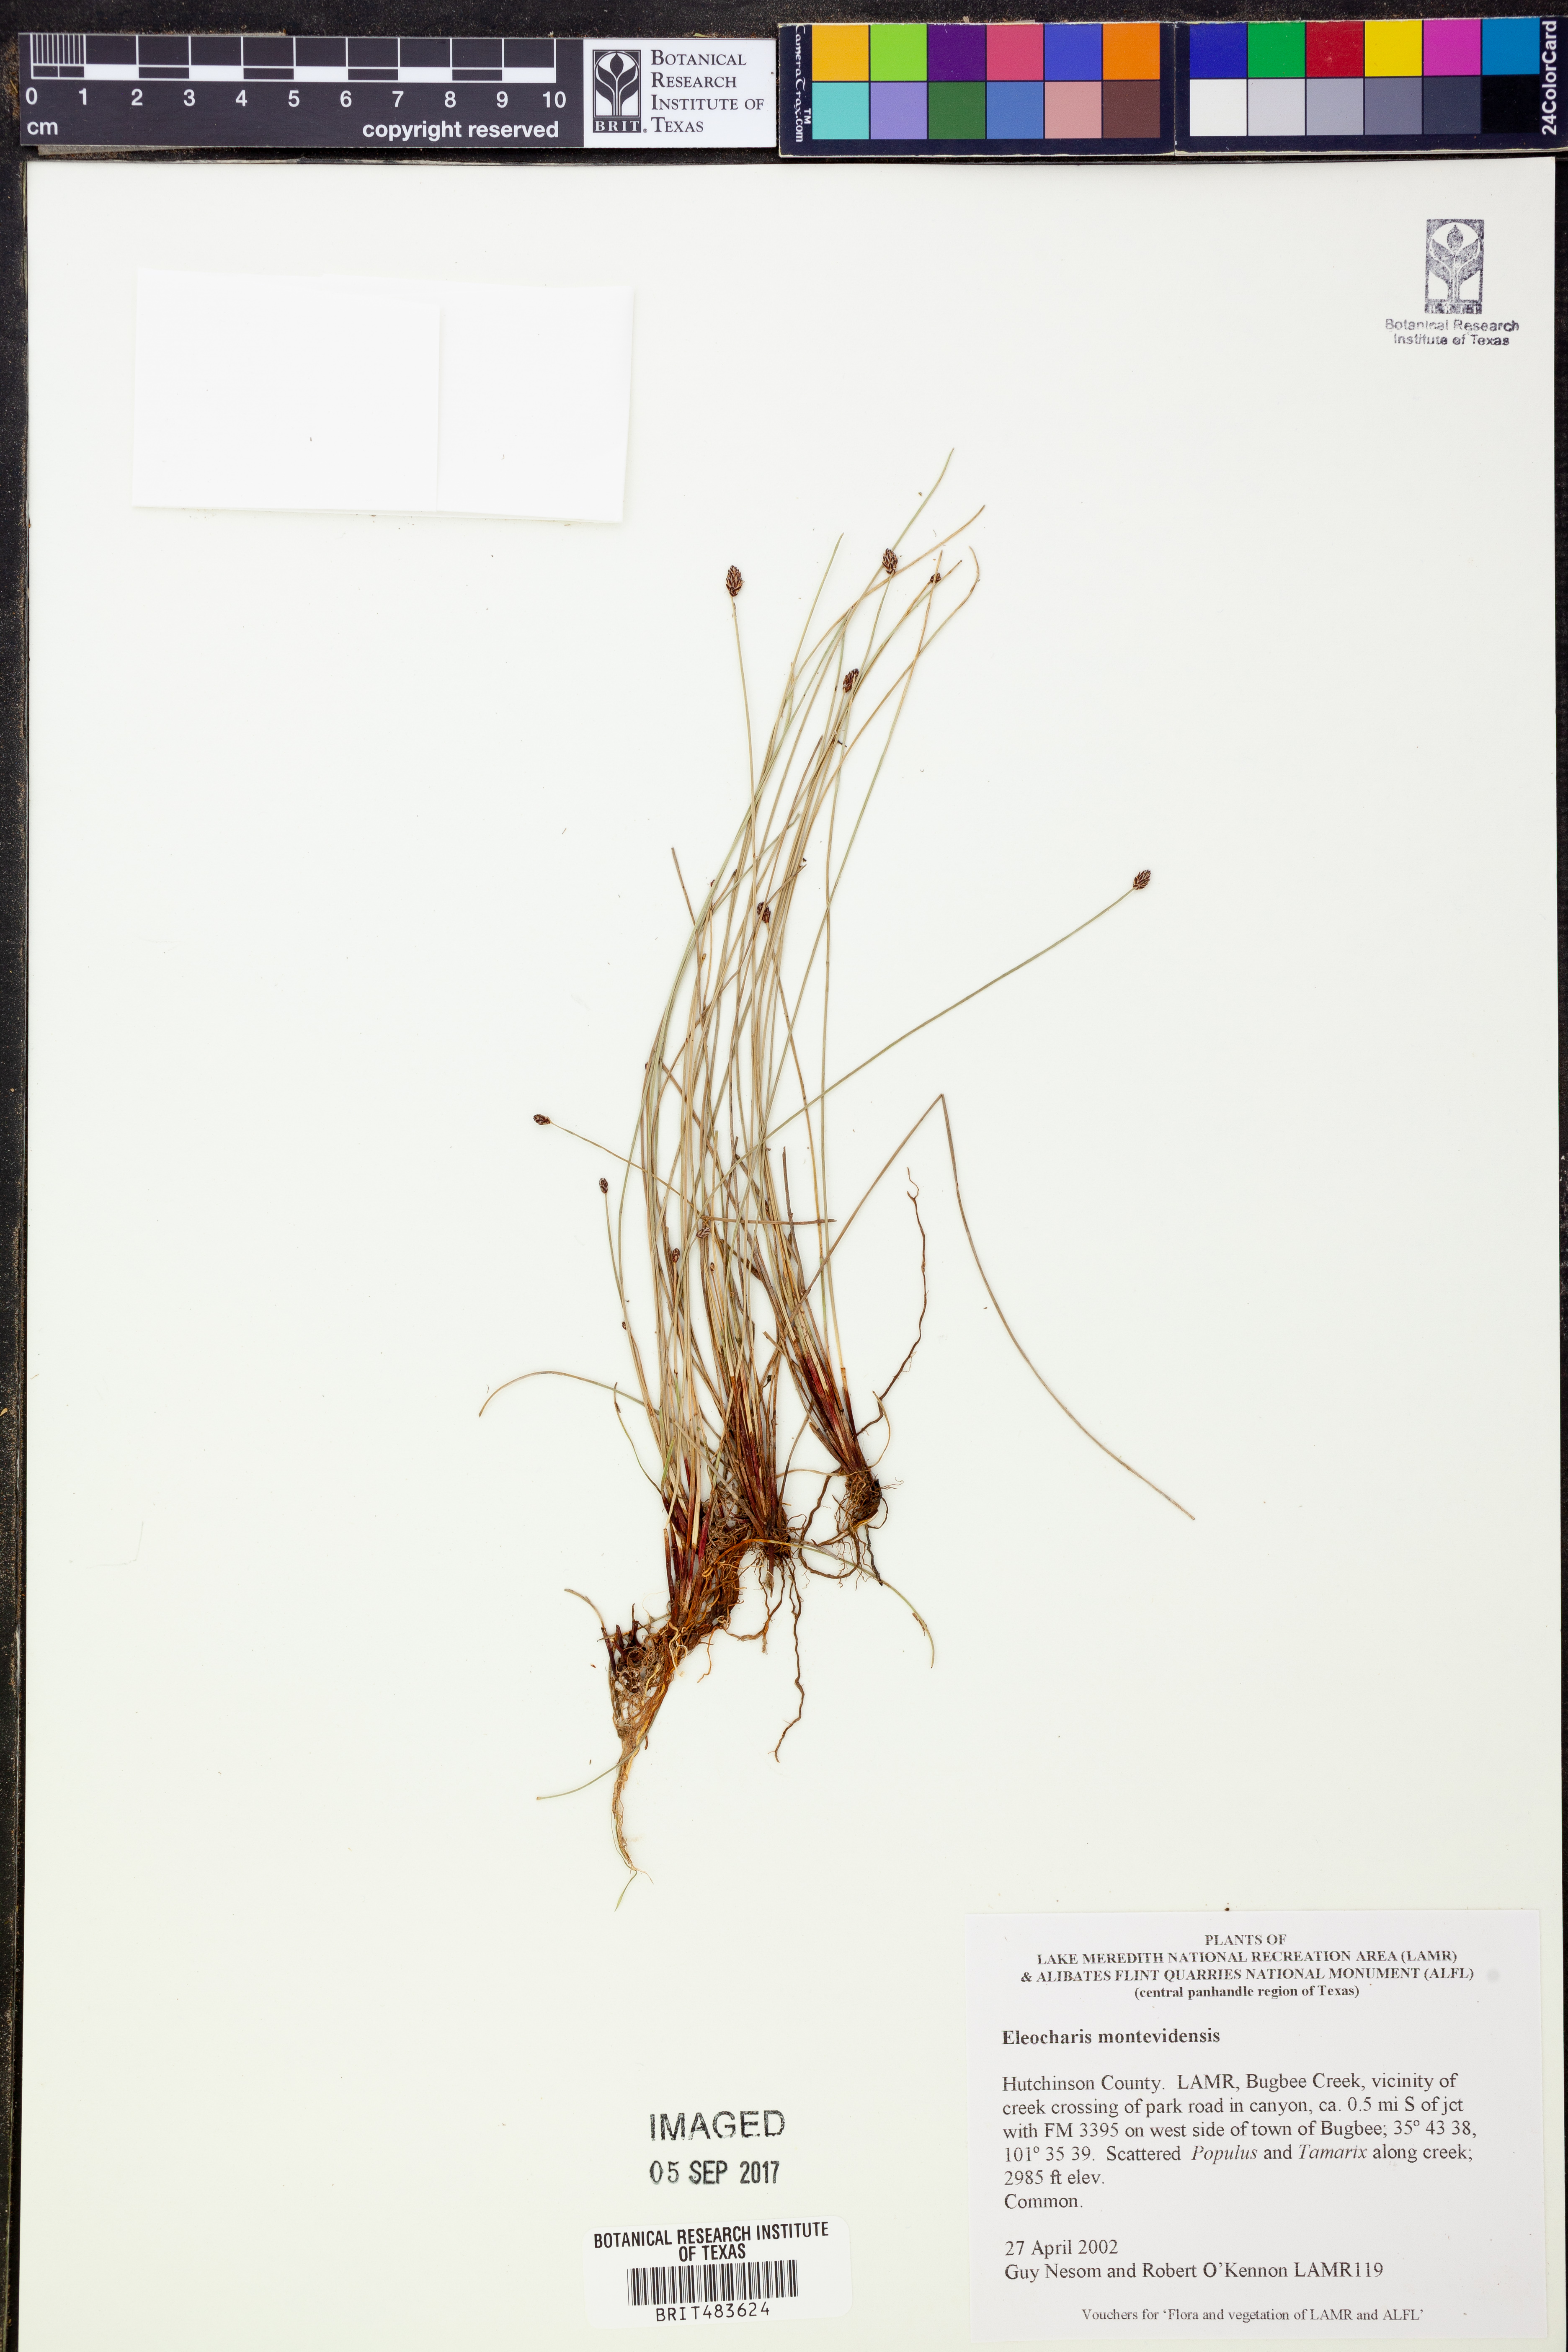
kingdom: Plantae
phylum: Tracheophyta
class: Liliopsida
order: Poales
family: Cyperaceae
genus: Eleocharis
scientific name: Eleocharis montevidensis
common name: Sand spike-rush
